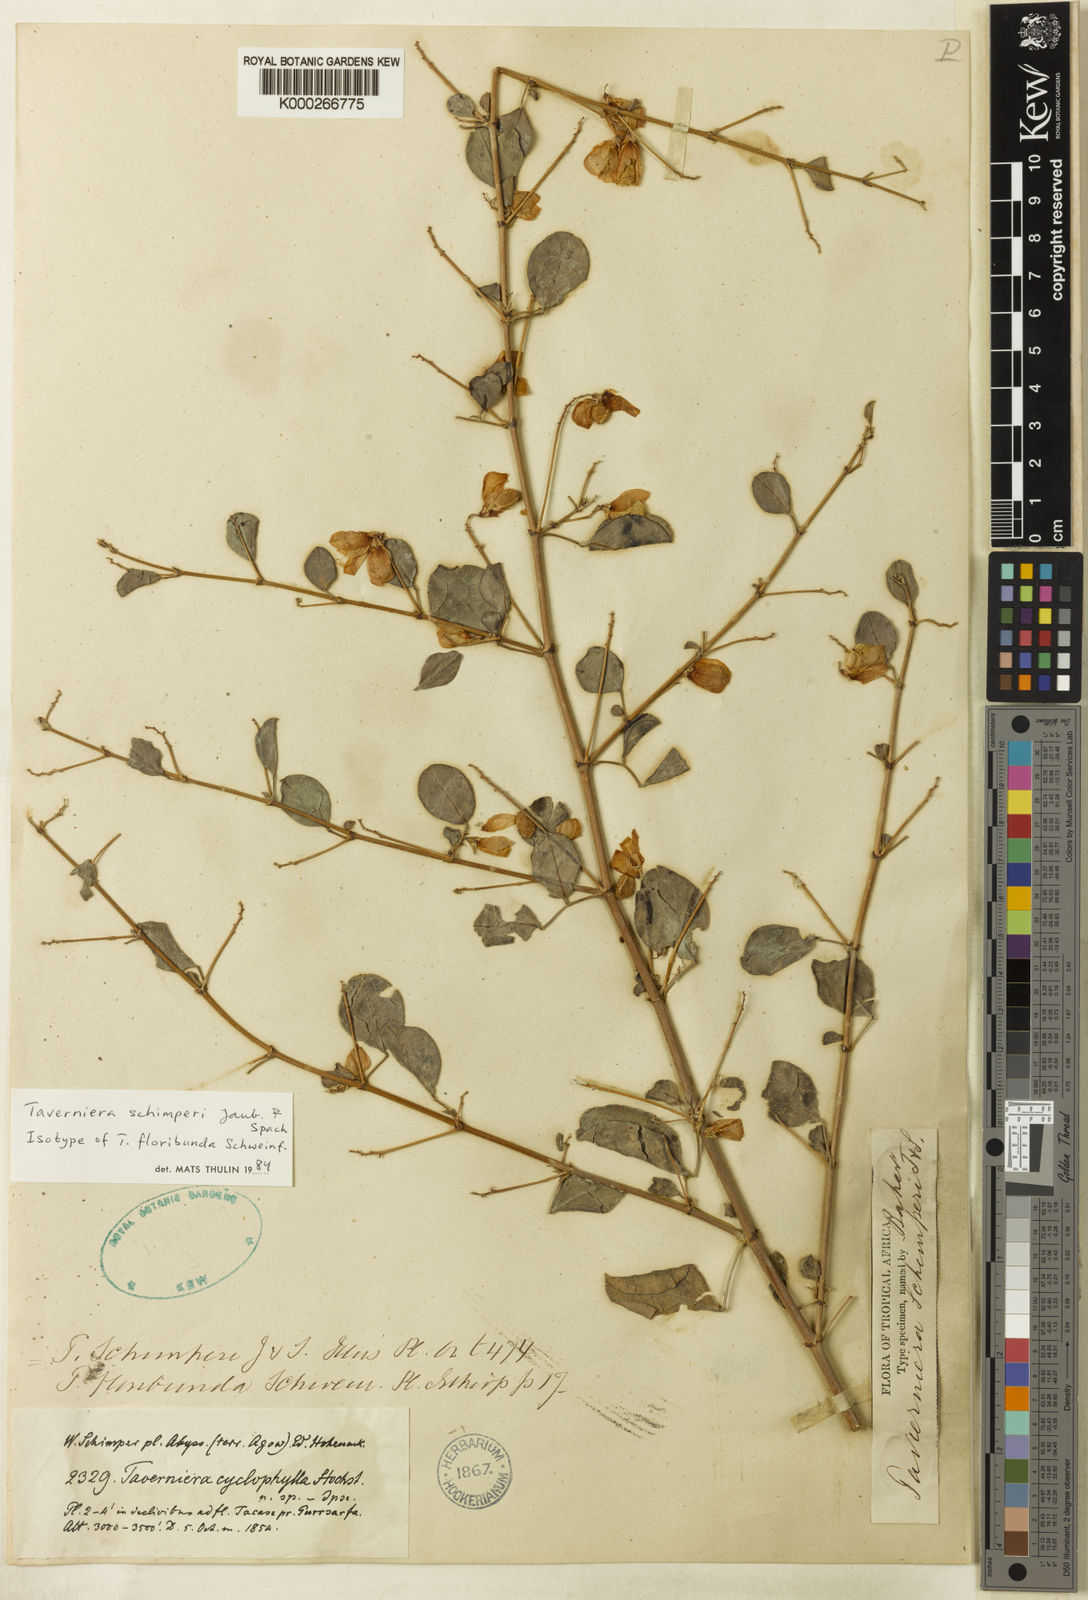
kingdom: Plantae
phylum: Tracheophyta
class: Magnoliopsida
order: Fabales
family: Fabaceae
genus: Taverniera
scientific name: Taverniera schimperi
